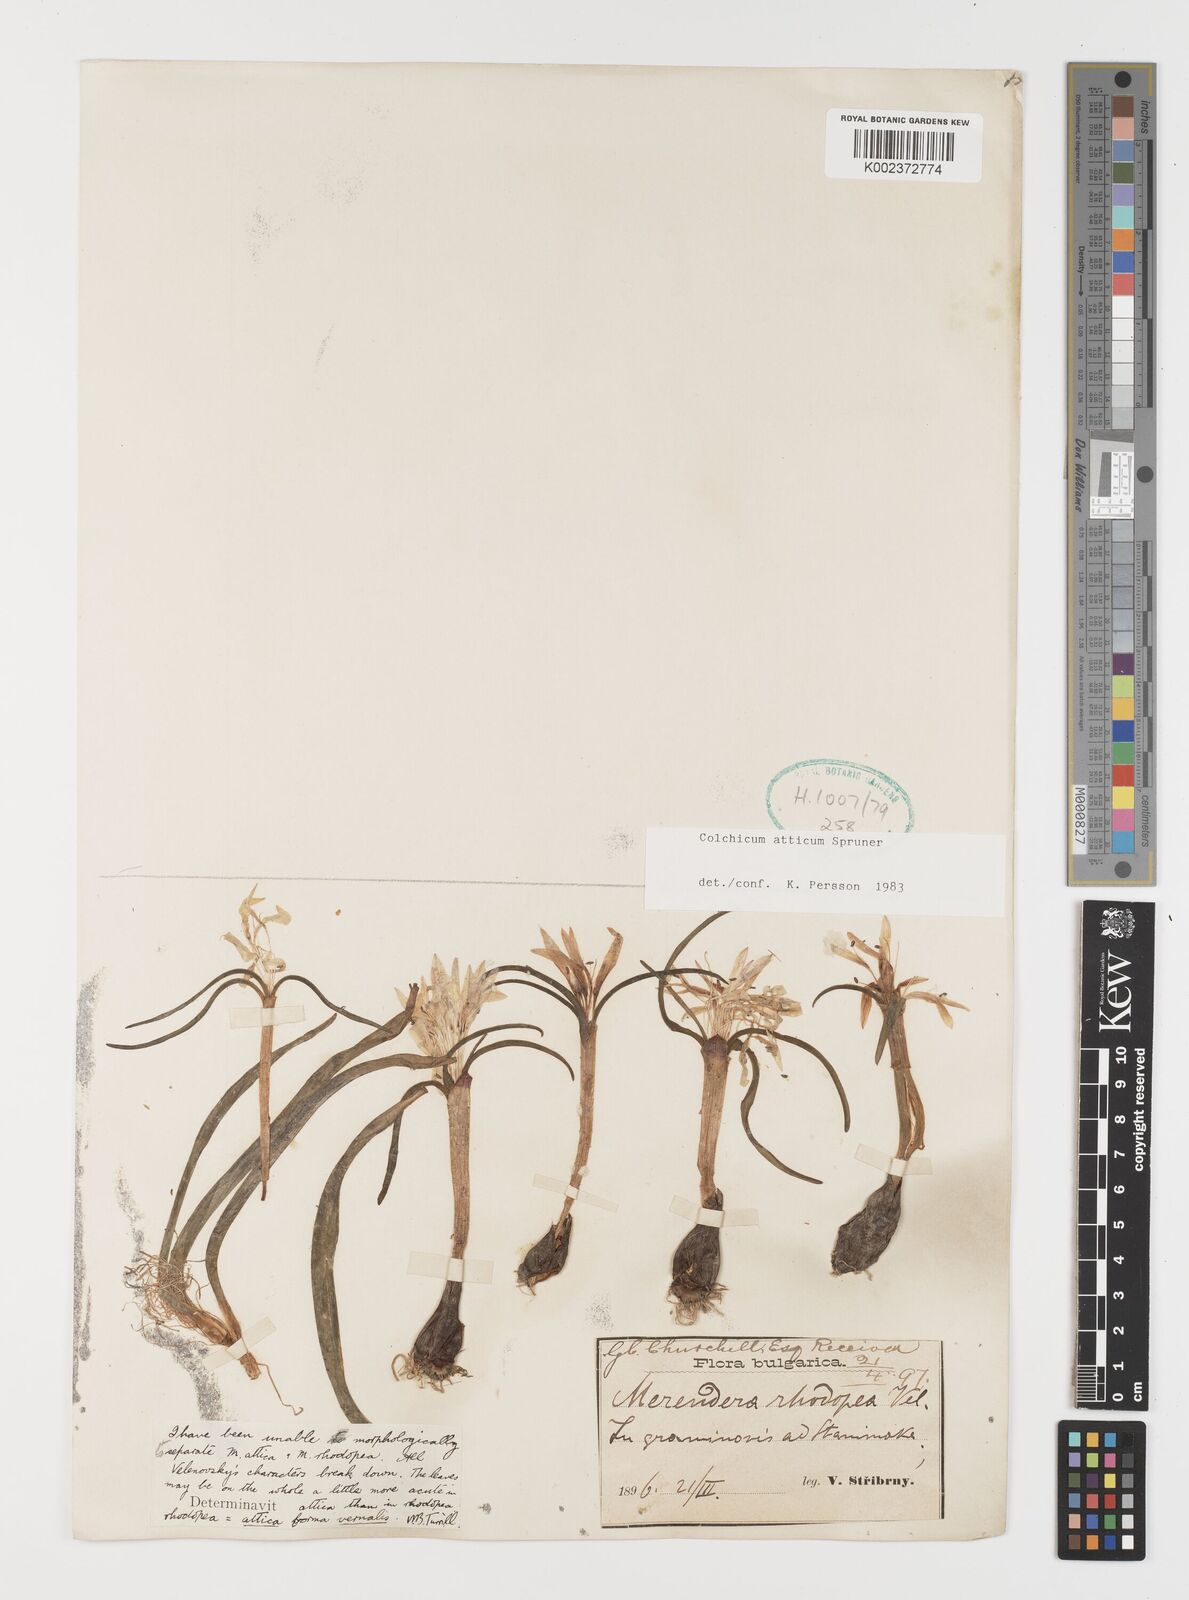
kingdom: Plantae
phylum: Tracheophyta
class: Liliopsida
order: Liliales
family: Colchicaceae
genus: Colchicum
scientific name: Colchicum atticum
